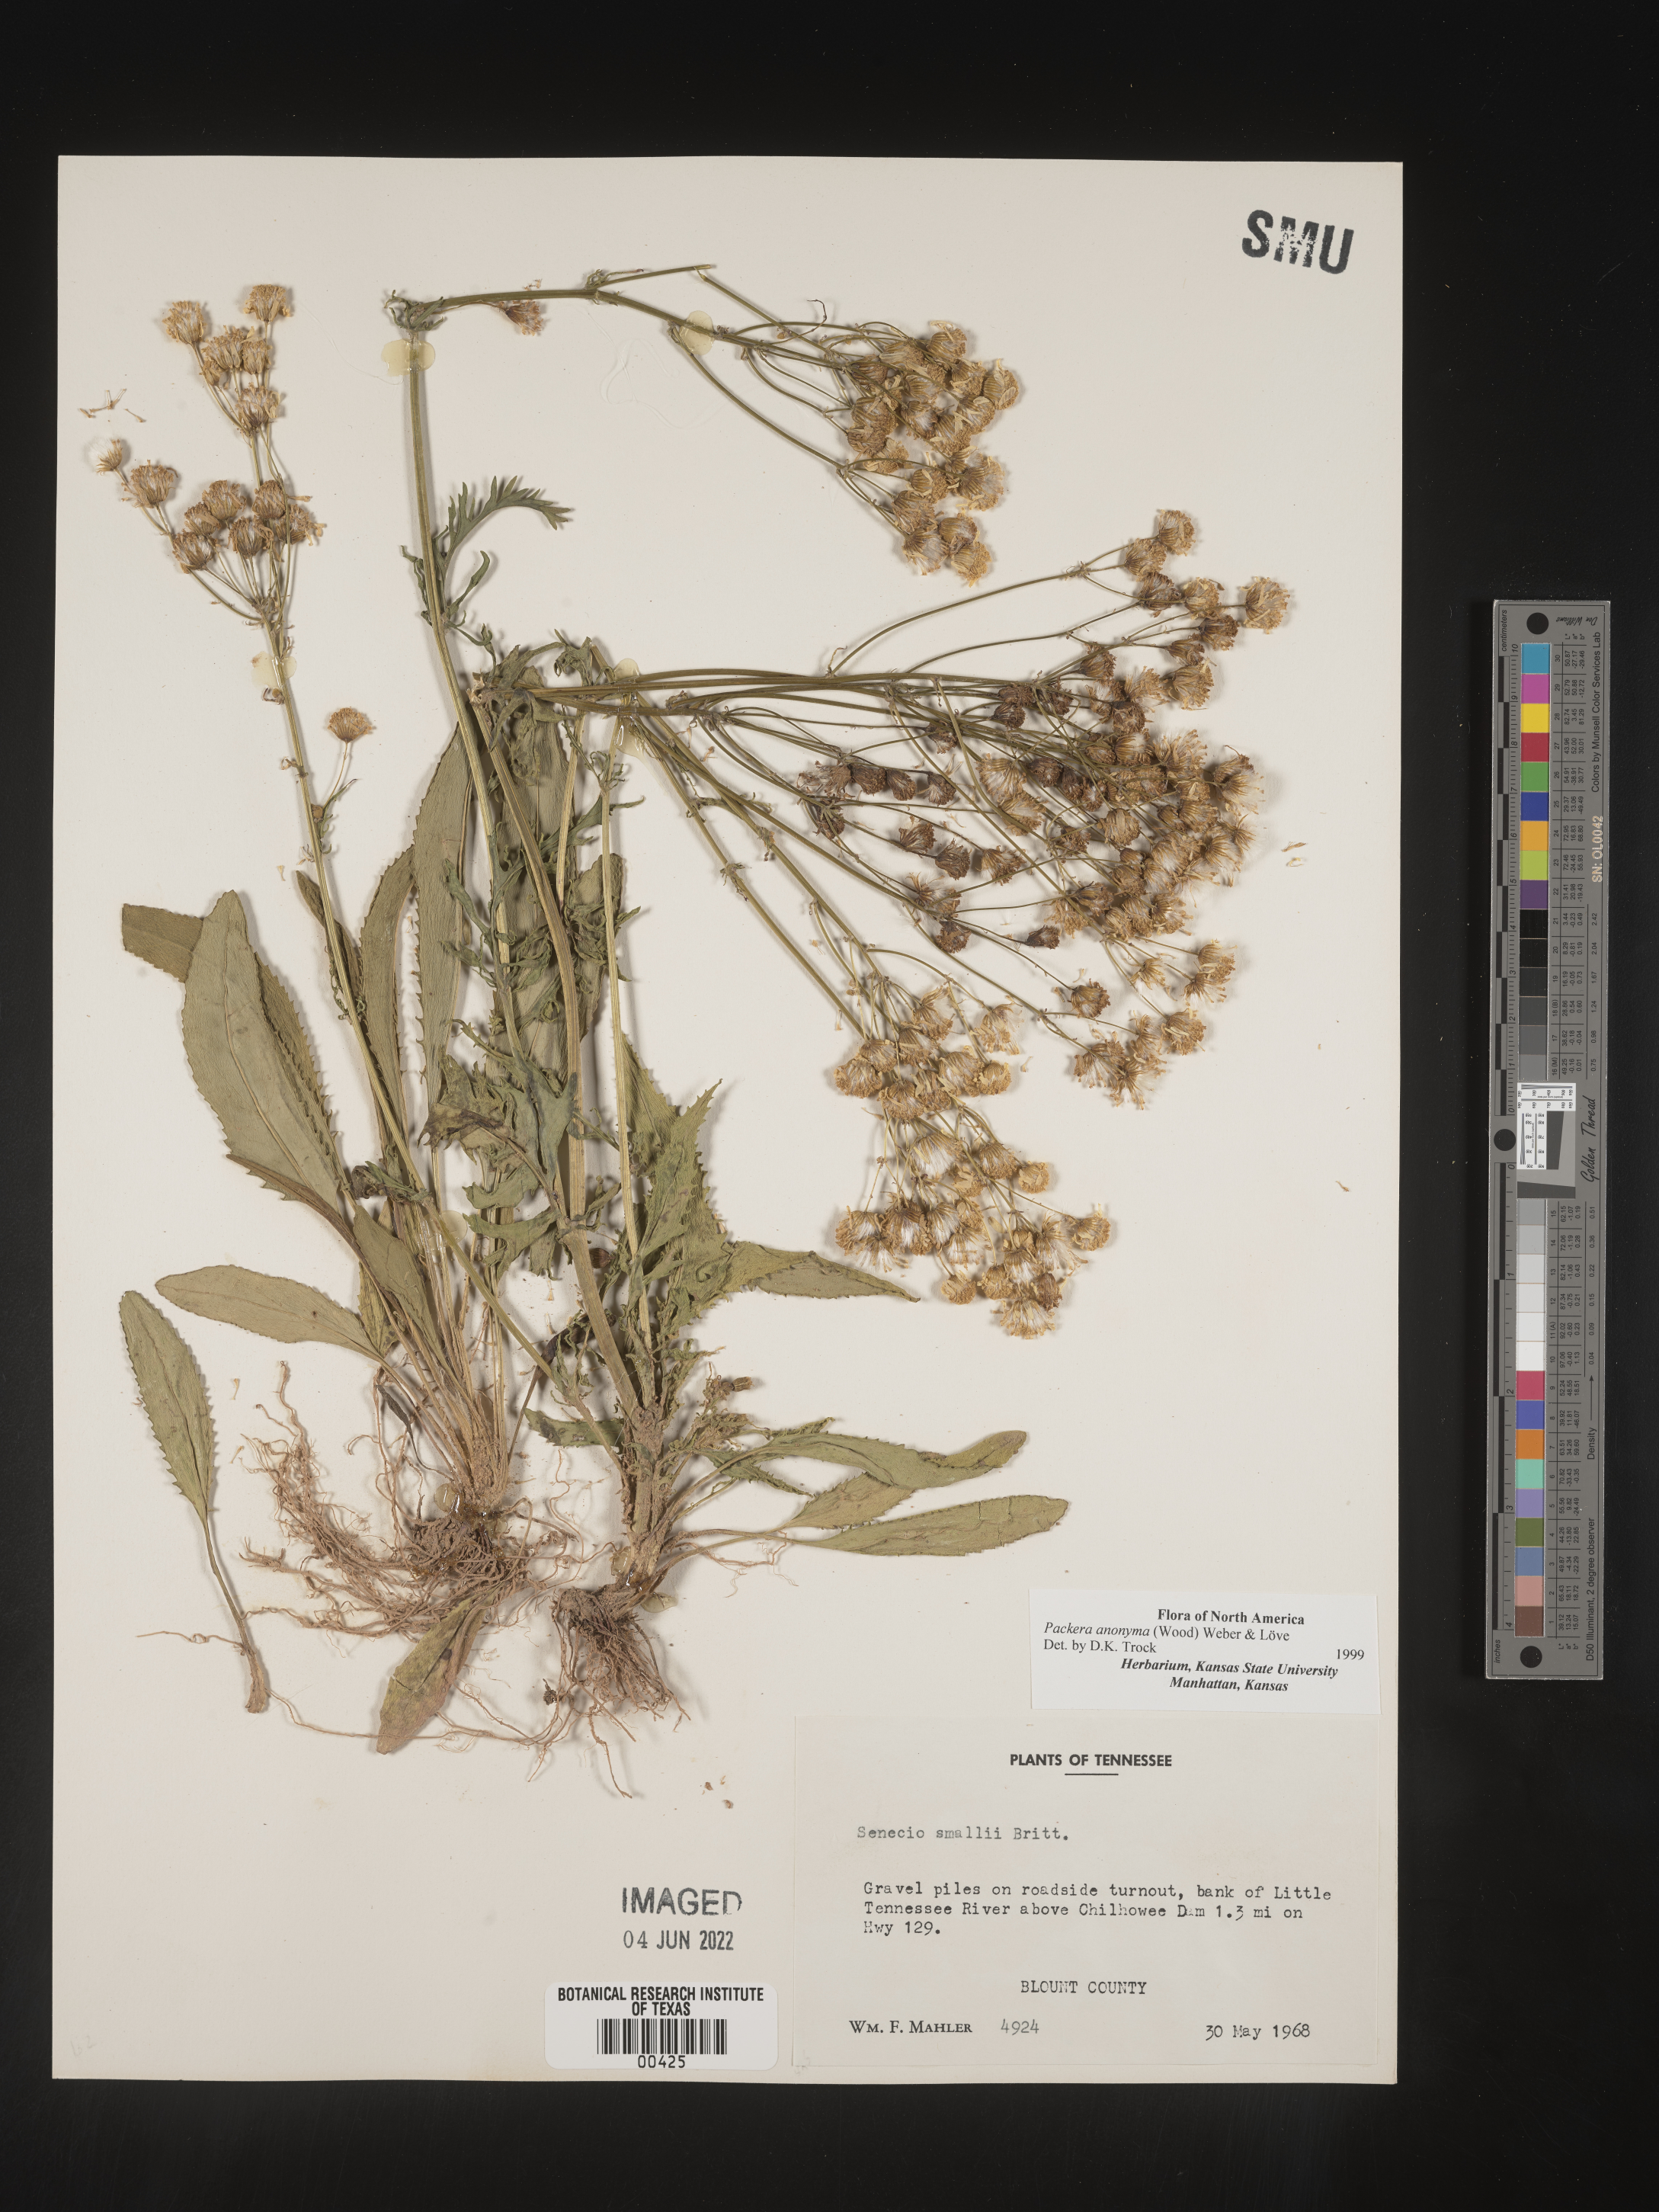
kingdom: Plantae
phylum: Tracheophyta
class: Magnoliopsida
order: Asterales
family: Asteraceae
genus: Packera
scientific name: Packera anonyma
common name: Small ragwort
